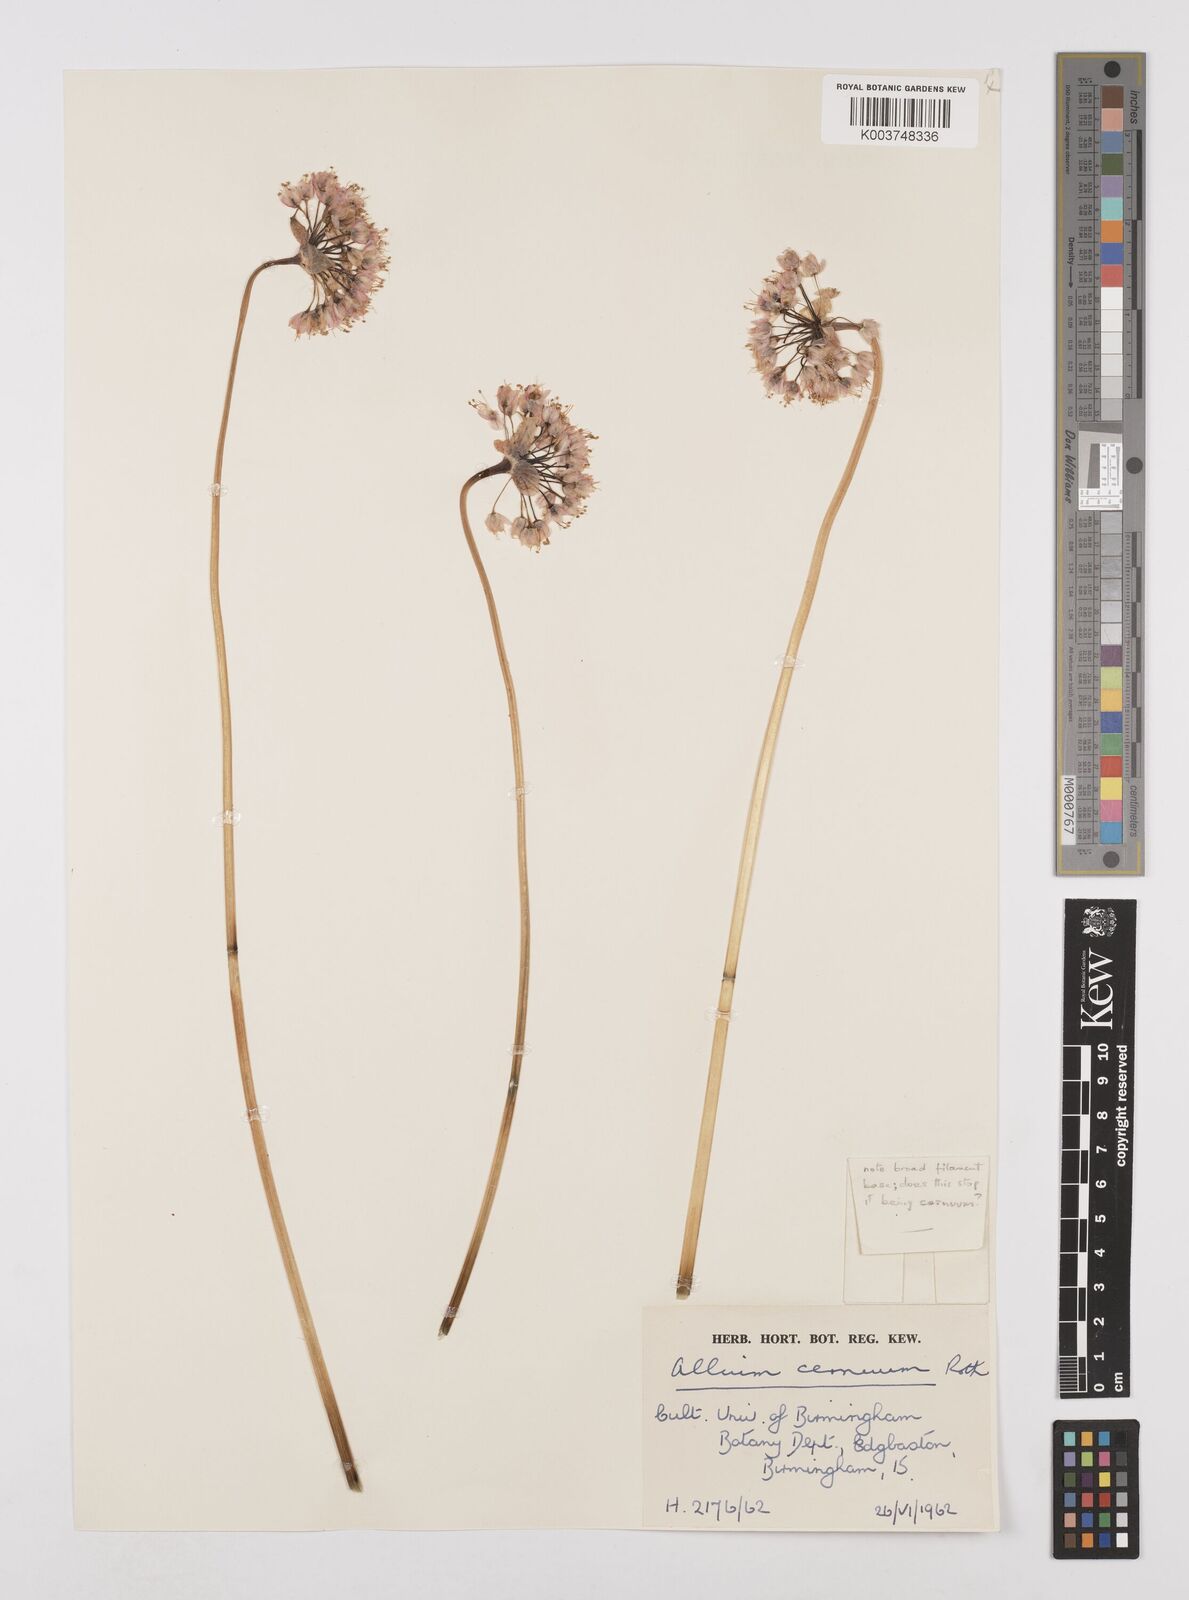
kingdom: Plantae
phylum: Tracheophyta
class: Liliopsida
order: Asparagales
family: Amaryllidaceae
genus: Allium
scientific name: Allium cernuum
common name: Nodding onion
